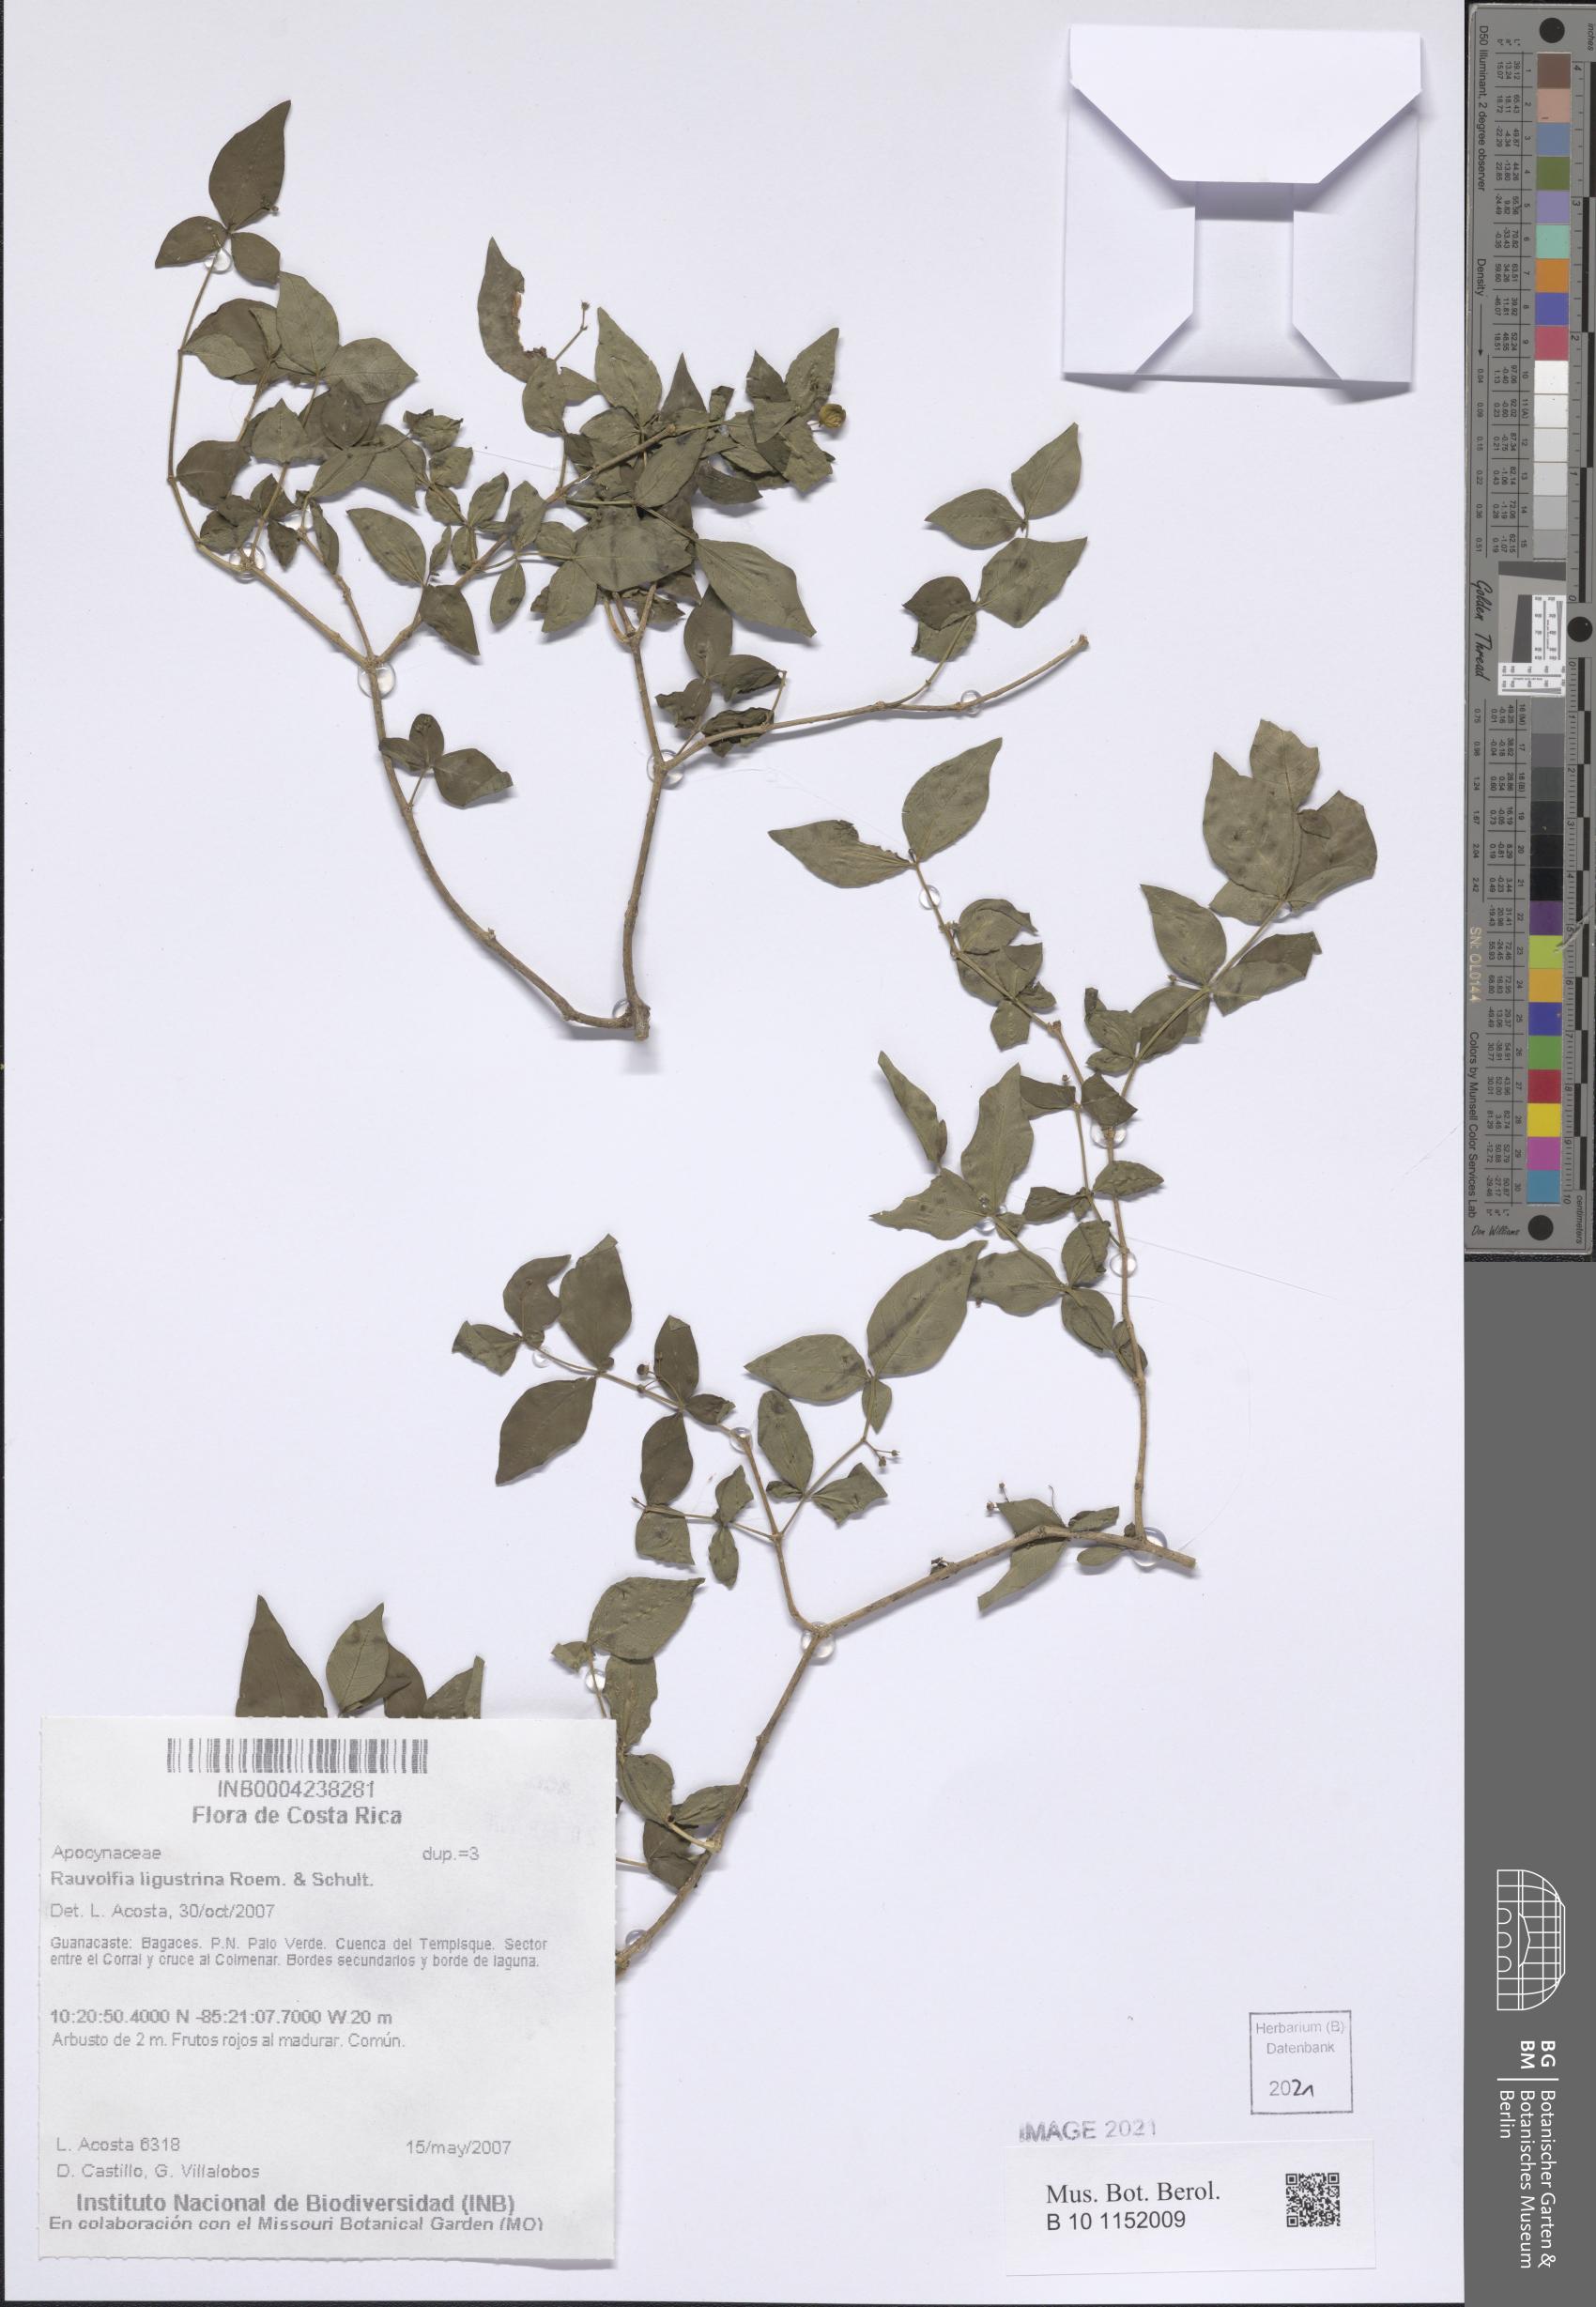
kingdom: Plantae
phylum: Tracheophyta
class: Magnoliopsida
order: Gentianales
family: Apocynaceae
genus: Rauvolfia
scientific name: Rauvolfia ligustrina
